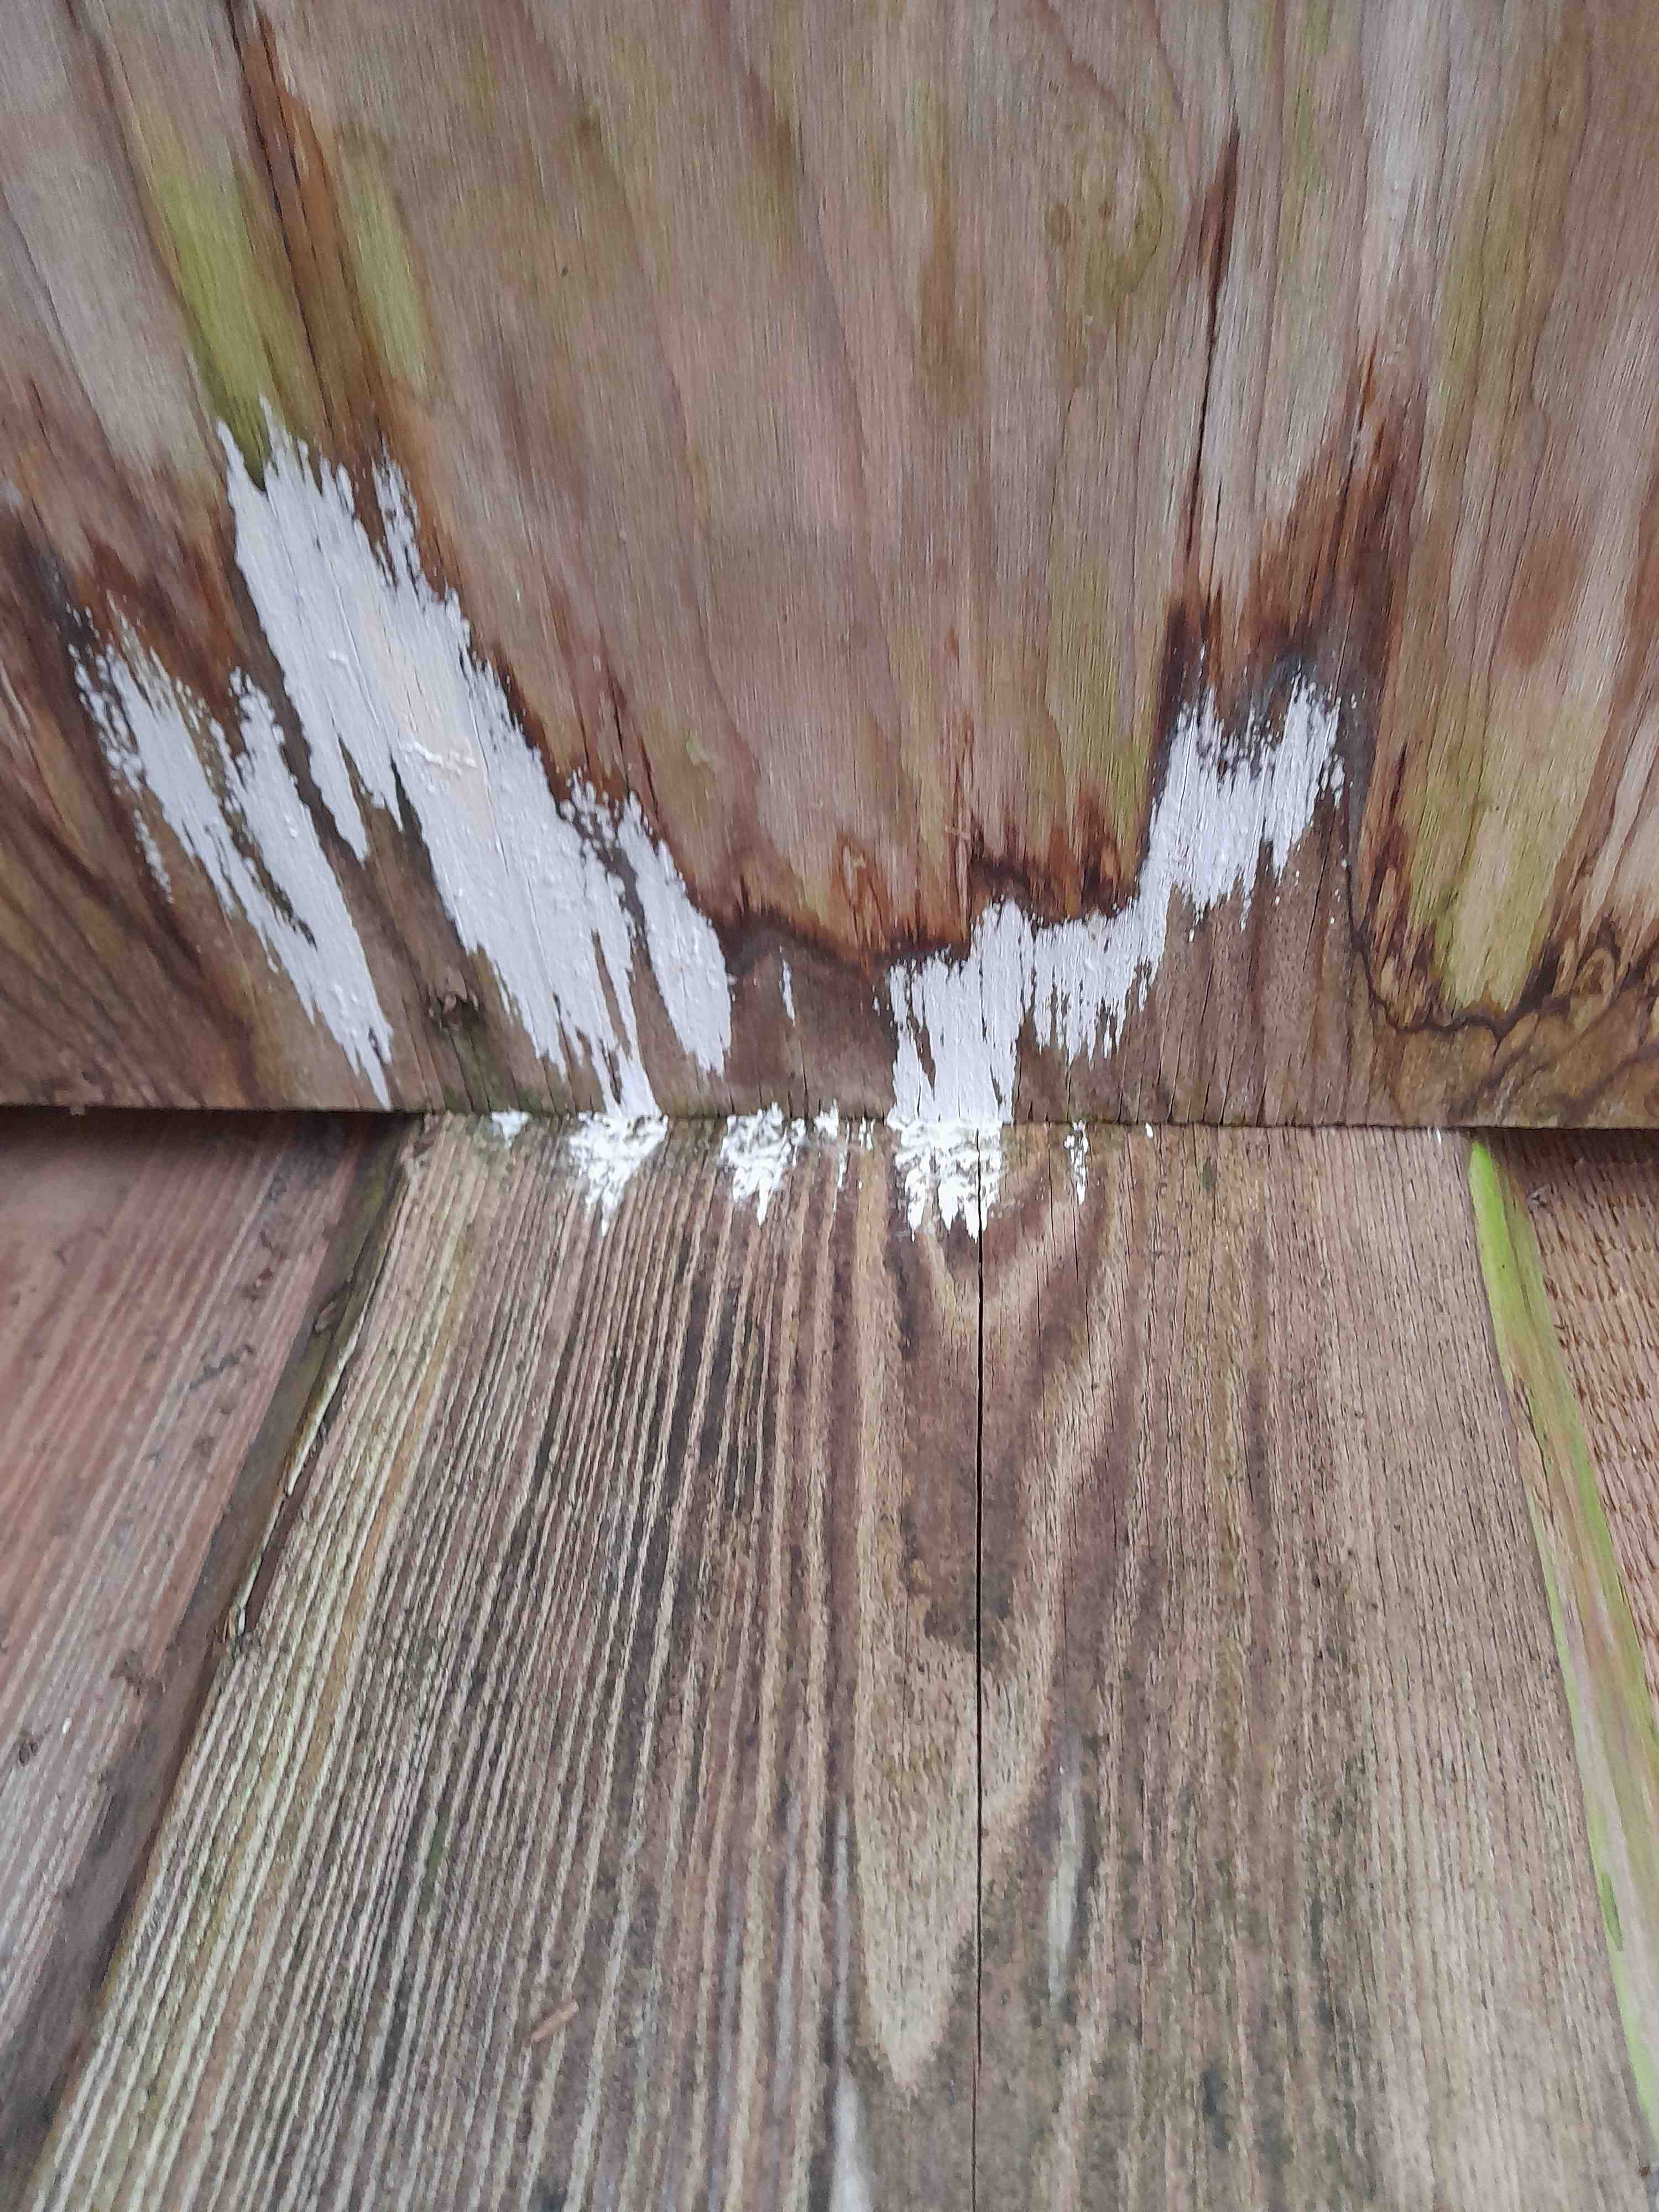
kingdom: Fungi
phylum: Basidiomycota
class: Agaricomycetes
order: Corticiales
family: Corticiaceae
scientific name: Corticiaceae
